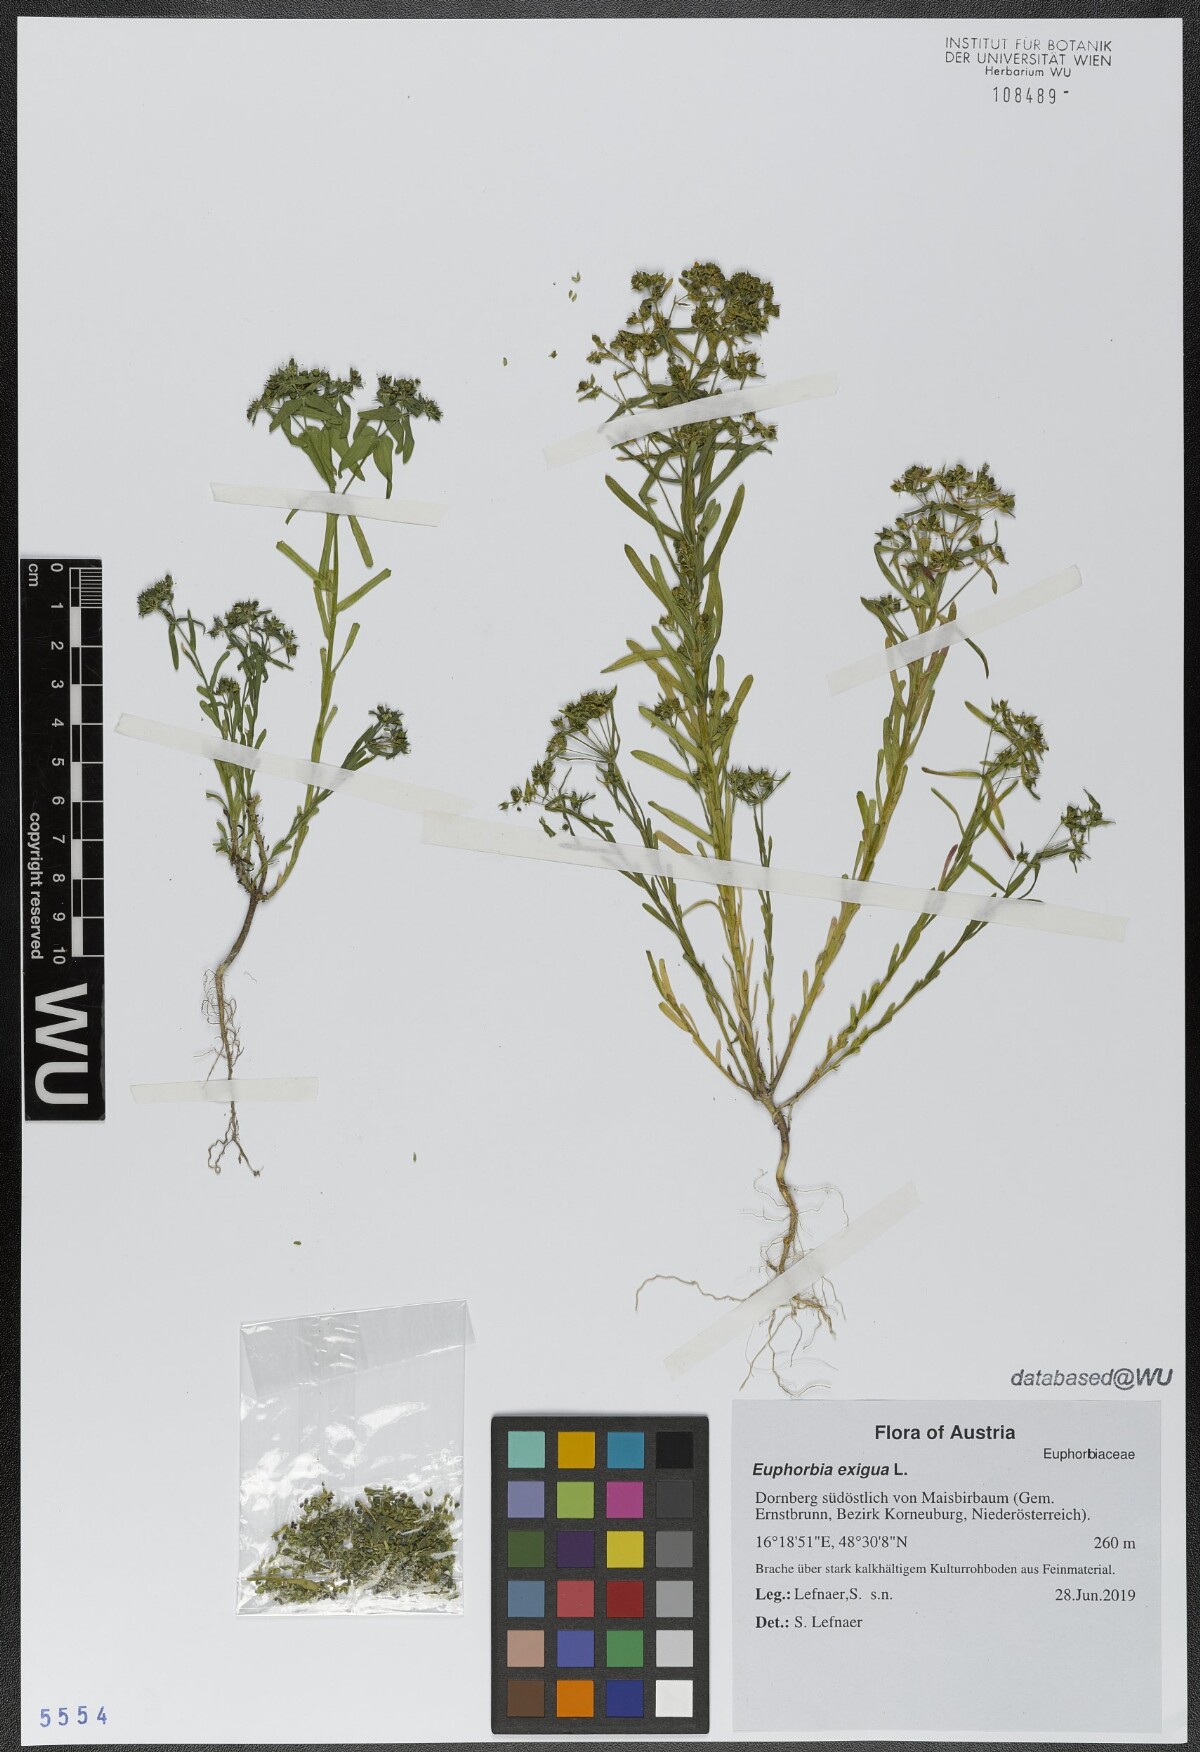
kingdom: Plantae
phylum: Tracheophyta
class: Magnoliopsida
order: Malpighiales
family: Euphorbiaceae
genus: Euphorbia
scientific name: Euphorbia exigua
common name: Dwarf spurge
